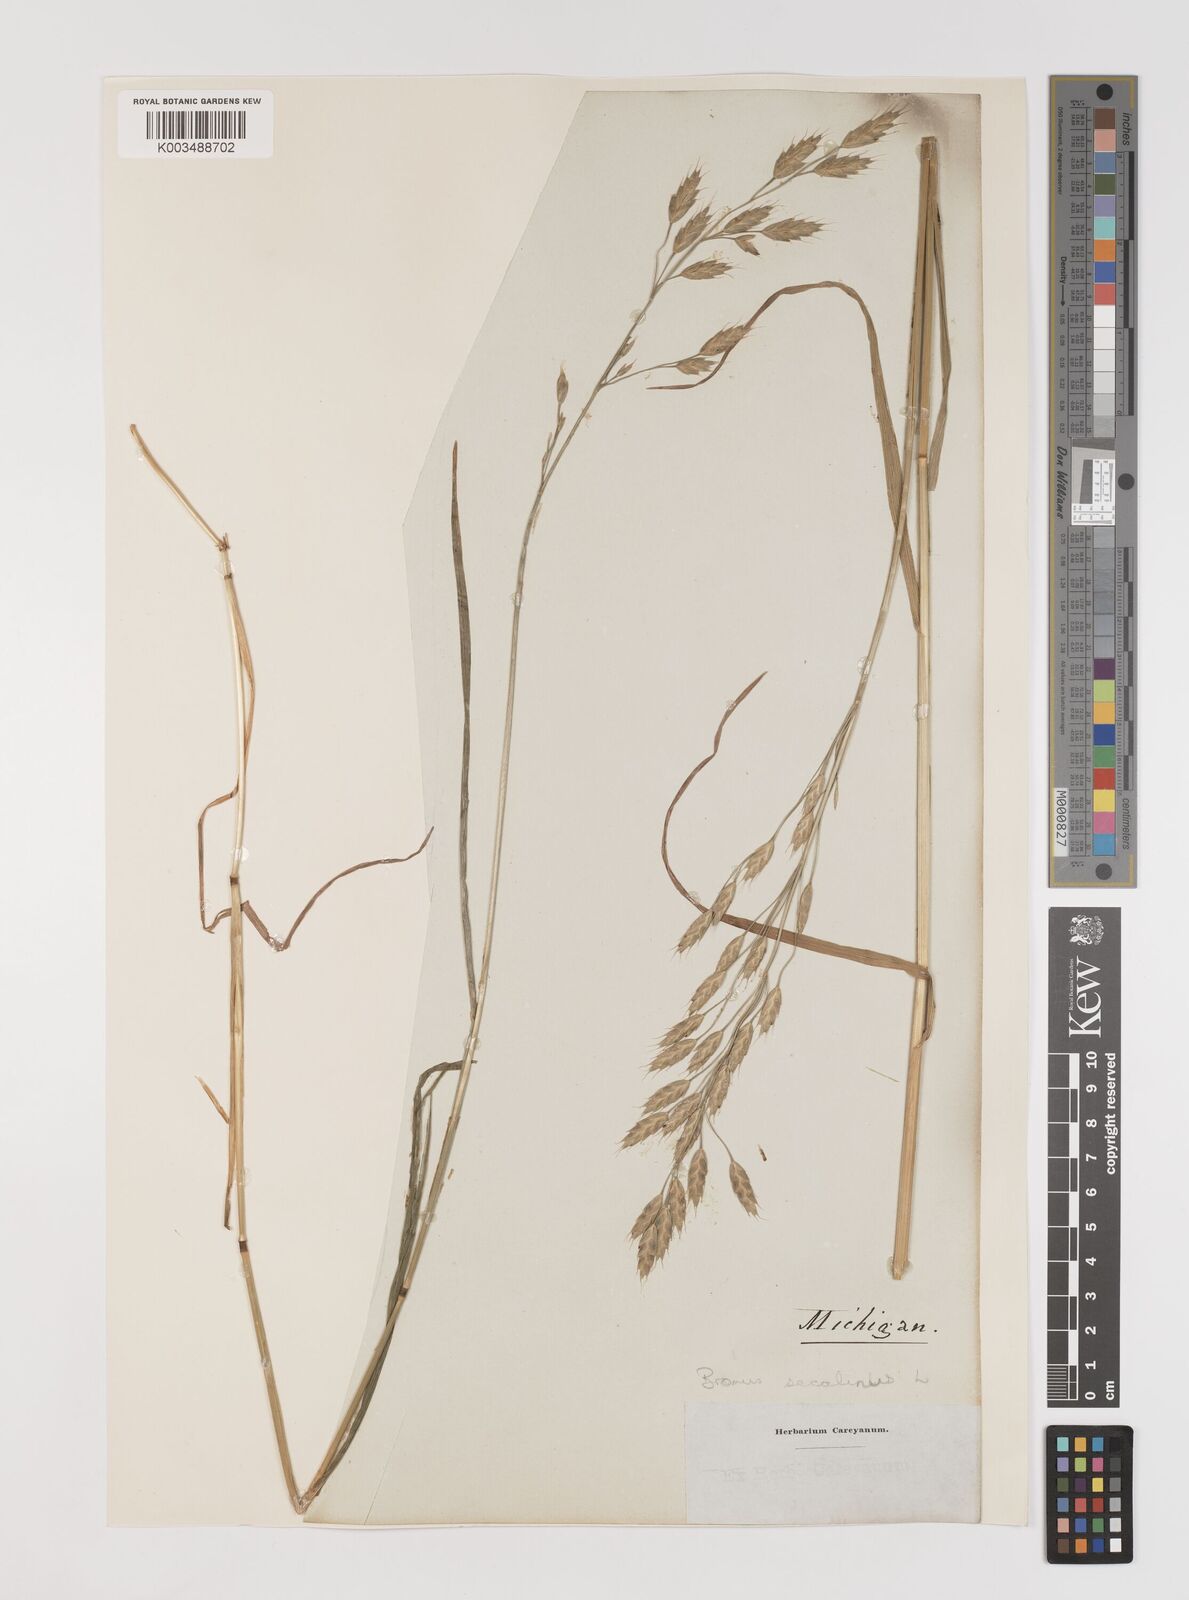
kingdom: Plantae
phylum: Tracheophyta
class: Liliopsida
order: Poales
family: Poaceae
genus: Bromus
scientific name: Bromus racemosus
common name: Bald brome
